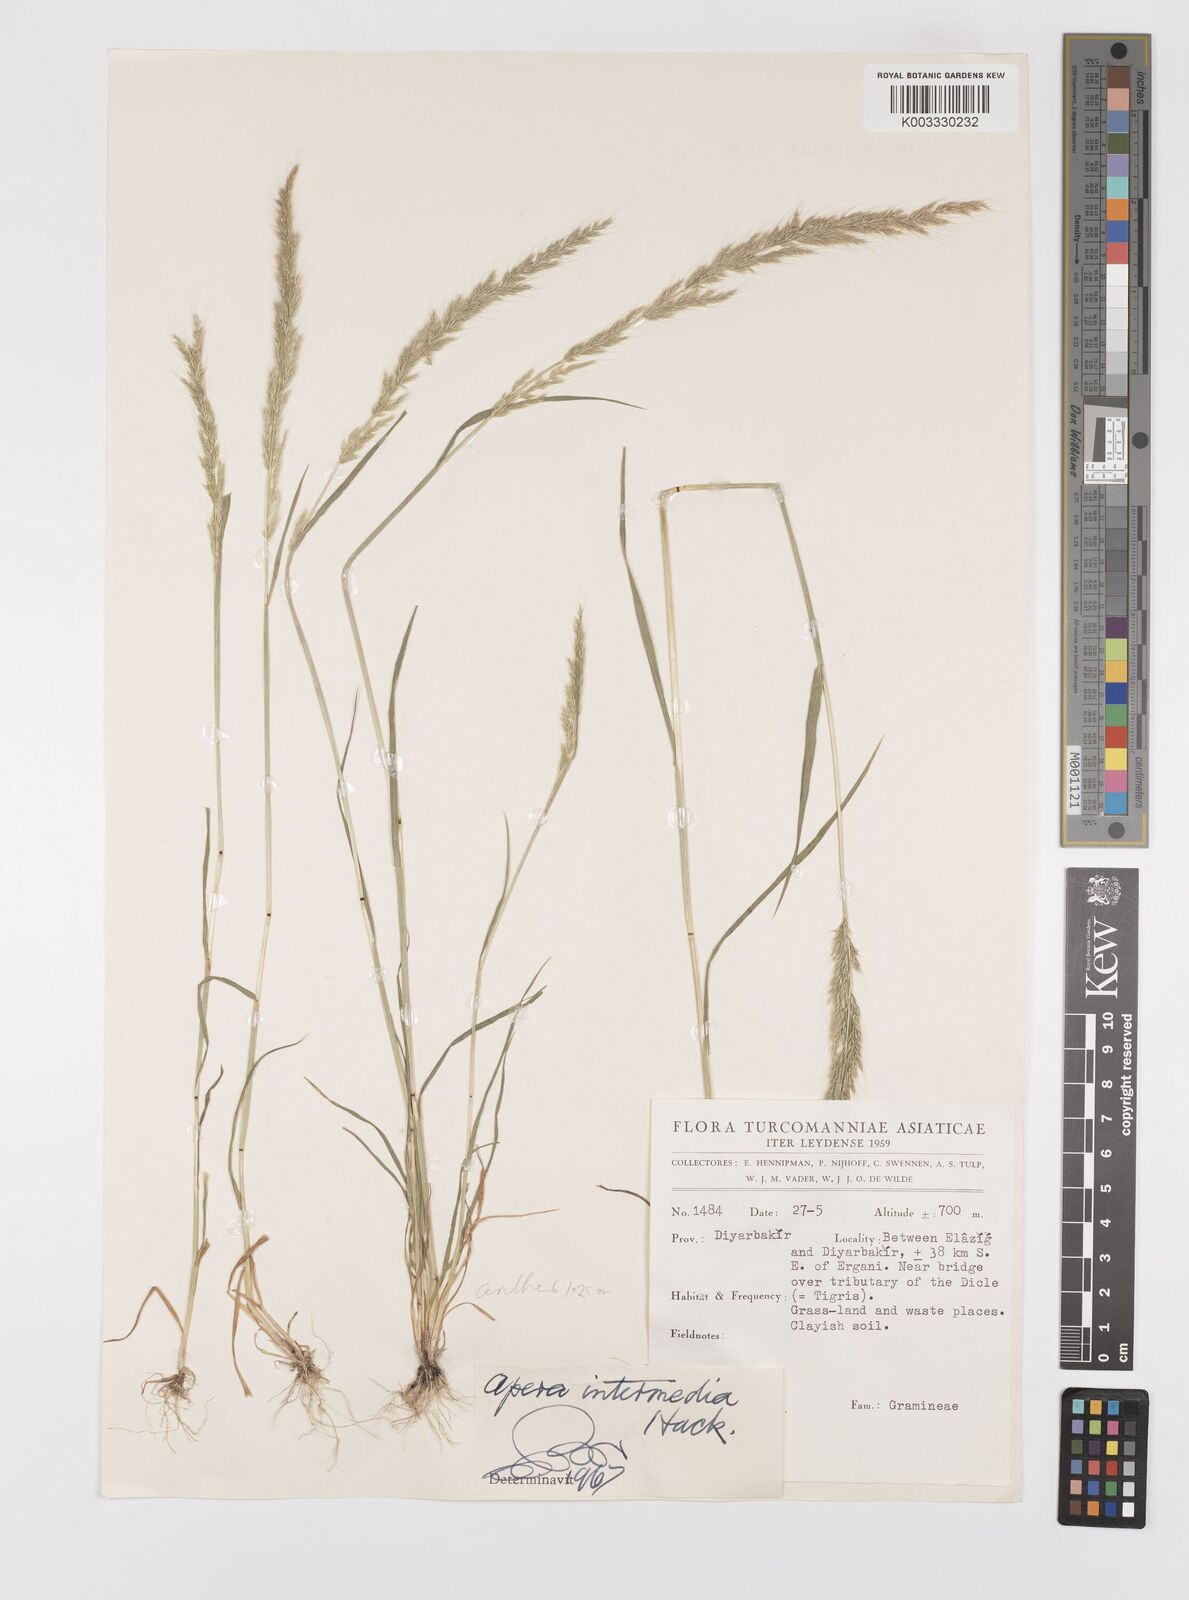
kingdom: Plantae
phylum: Tracheophyta
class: Liliopsida
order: Poales
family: Poaceae
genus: Apera
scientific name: Apera intermedia
